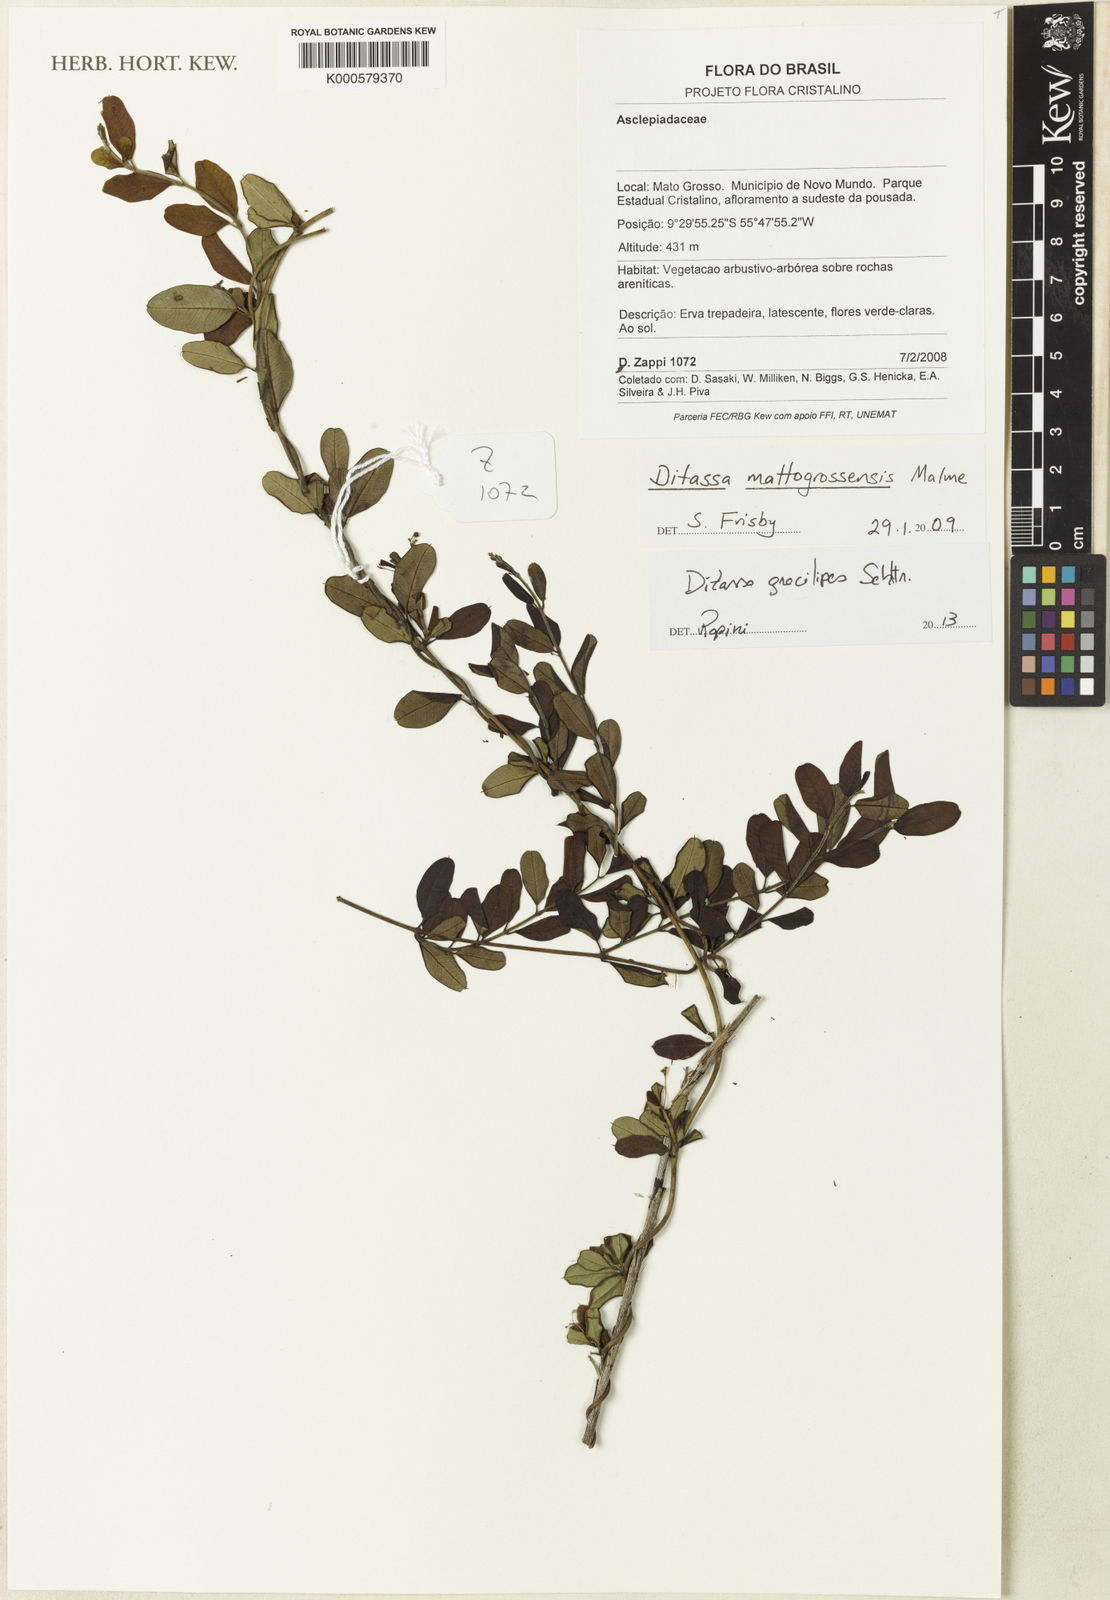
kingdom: Plantae
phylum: Tracheophyta
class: Magnoliopsida
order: Gentianales
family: Apocynaceae
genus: Ditassa
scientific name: Ditassa gracilipes
